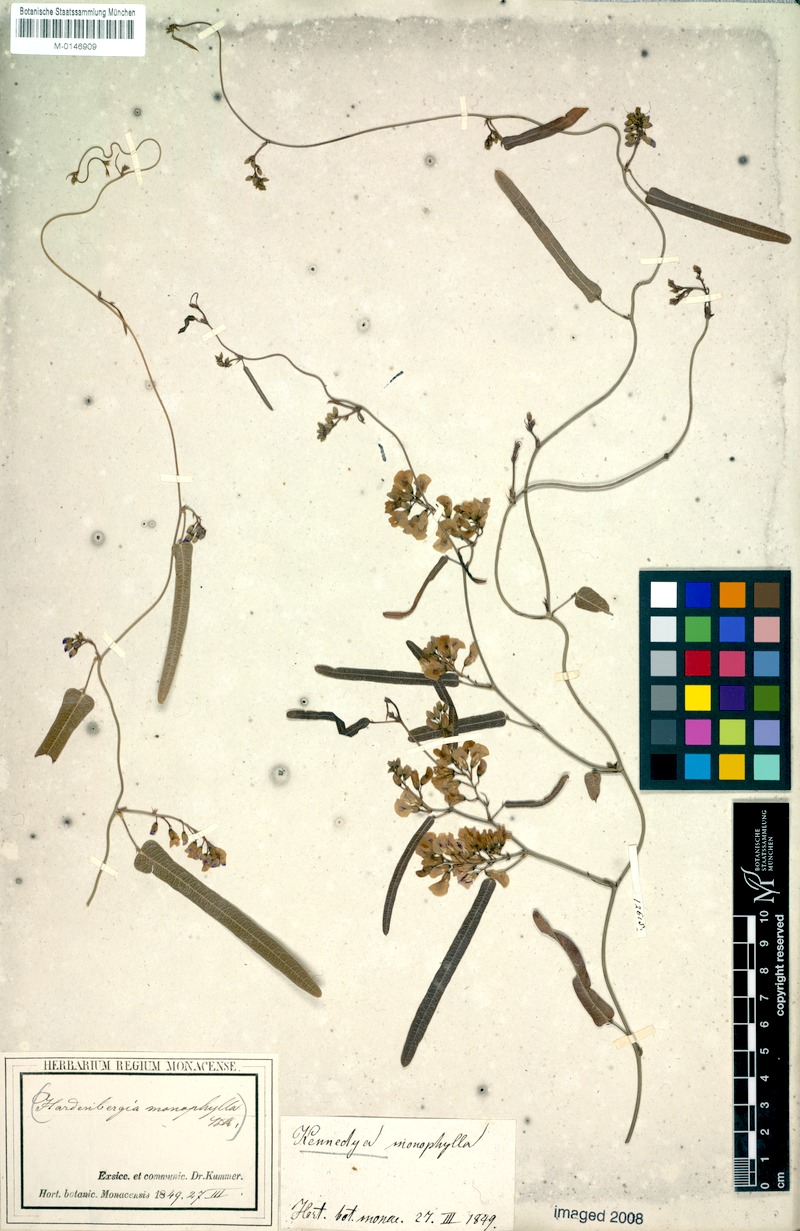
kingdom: Plantae
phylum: Tracheophyta
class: Magnoliopsida
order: Fabales
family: Fabaceae
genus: Hardenbergia
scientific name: Hardenbergia violacea
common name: Coral-pea
